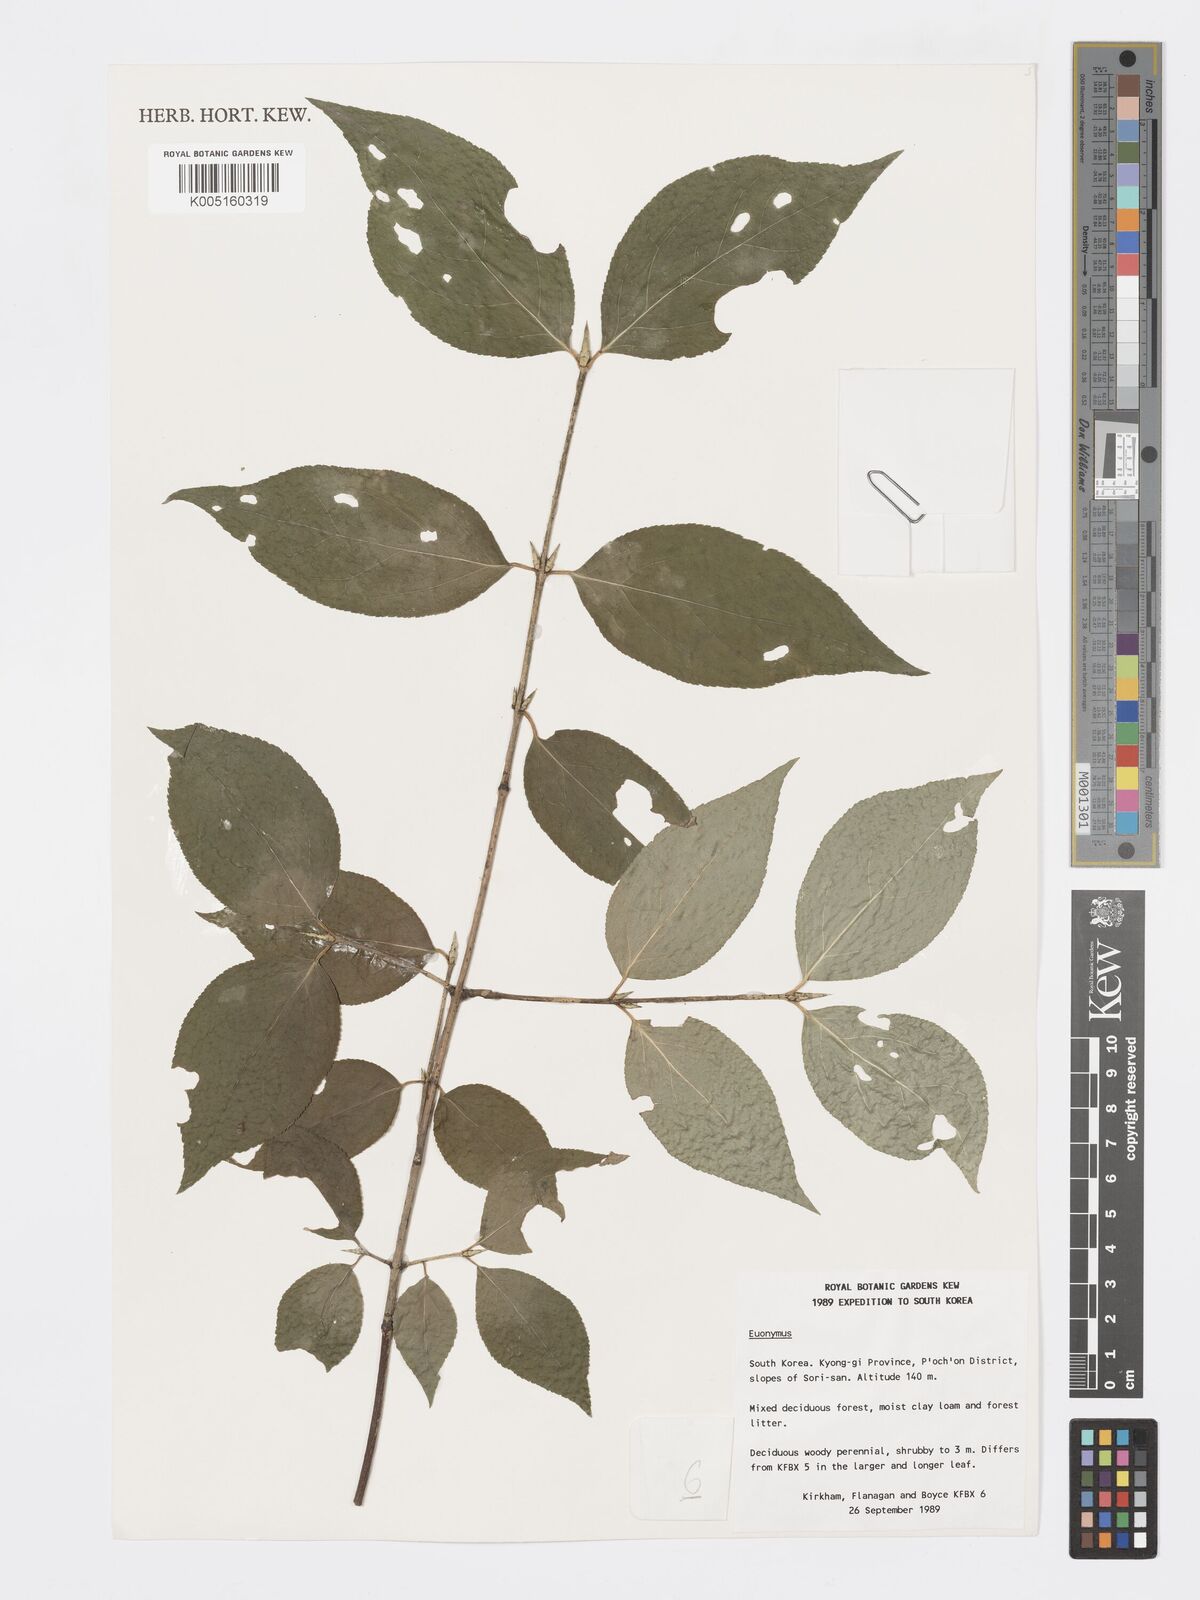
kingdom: Plantae
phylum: Tracheophyta
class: Magnoliopsida
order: Celastrales
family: Celastraceae
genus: Euonymus
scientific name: Euonymus
